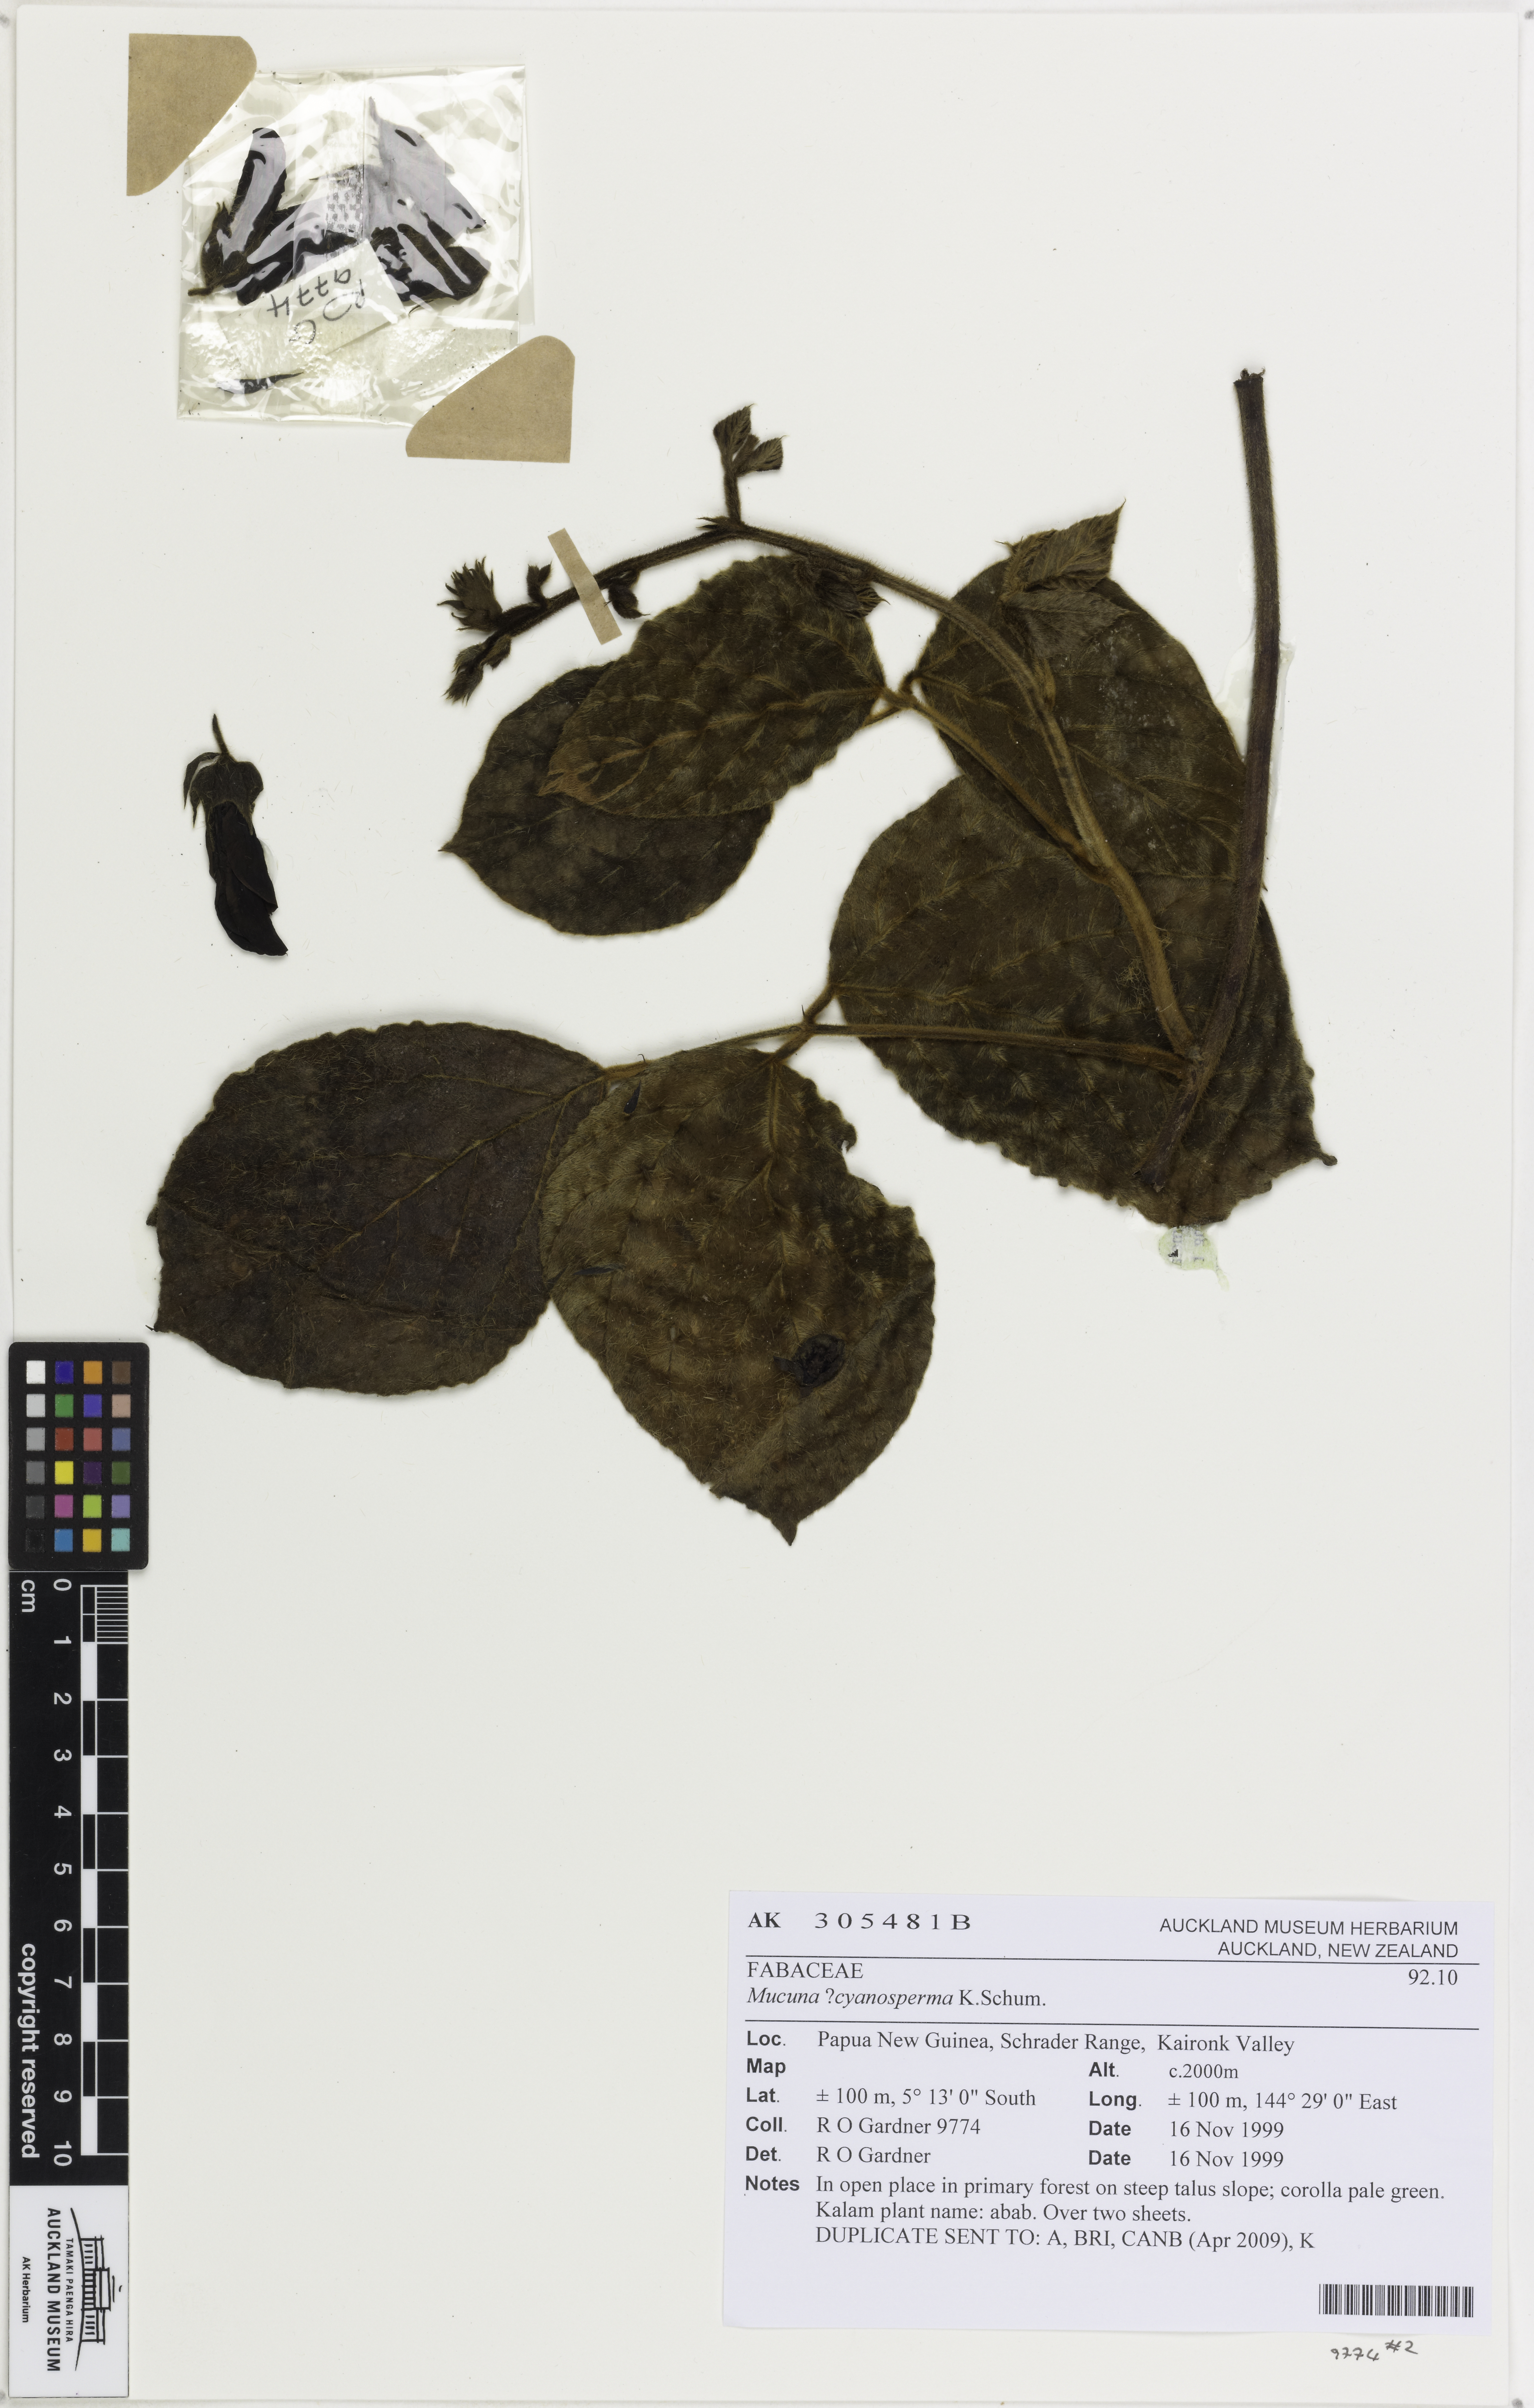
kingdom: Plantae
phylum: Tracheophyta
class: Magnoliopsida
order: Fabales
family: Fabaceae
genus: Mucuna
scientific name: Mucuna mollissima
